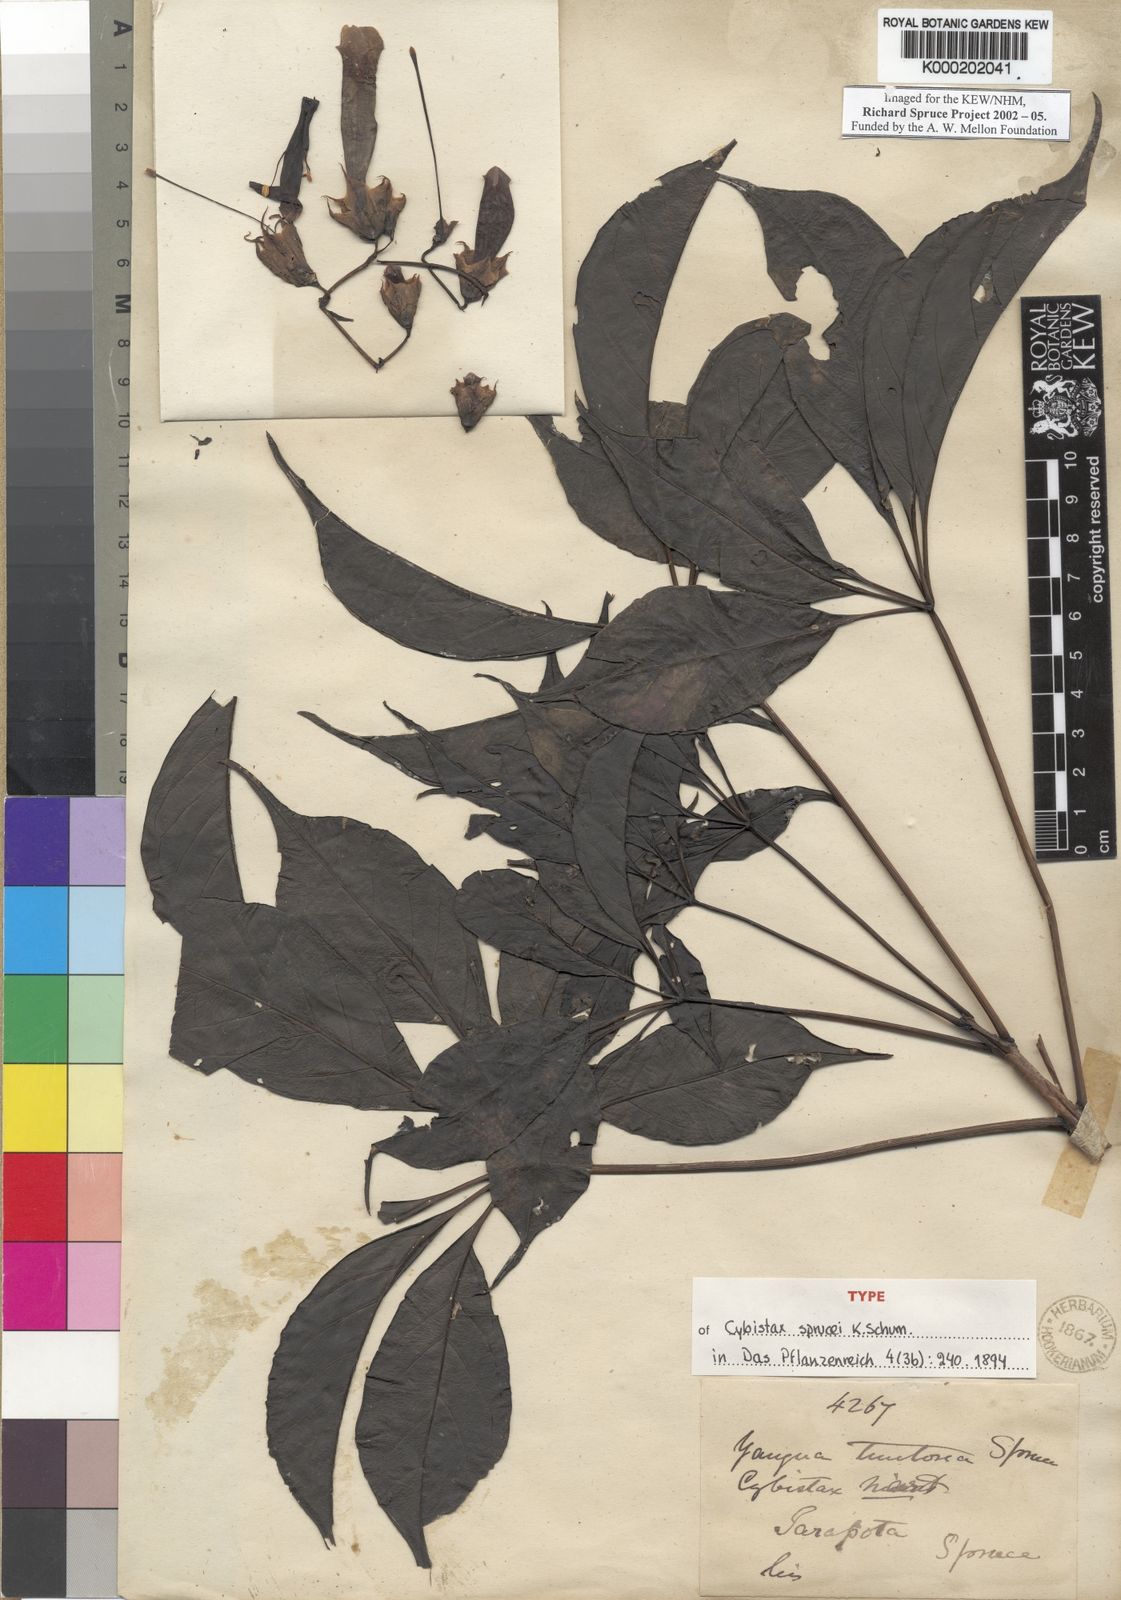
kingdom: Plantae
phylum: Tracheophyta
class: Magnoliopsida
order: Lamiales
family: Bignoniaceae
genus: Cybistax
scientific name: Cybistax antisyphilitica
